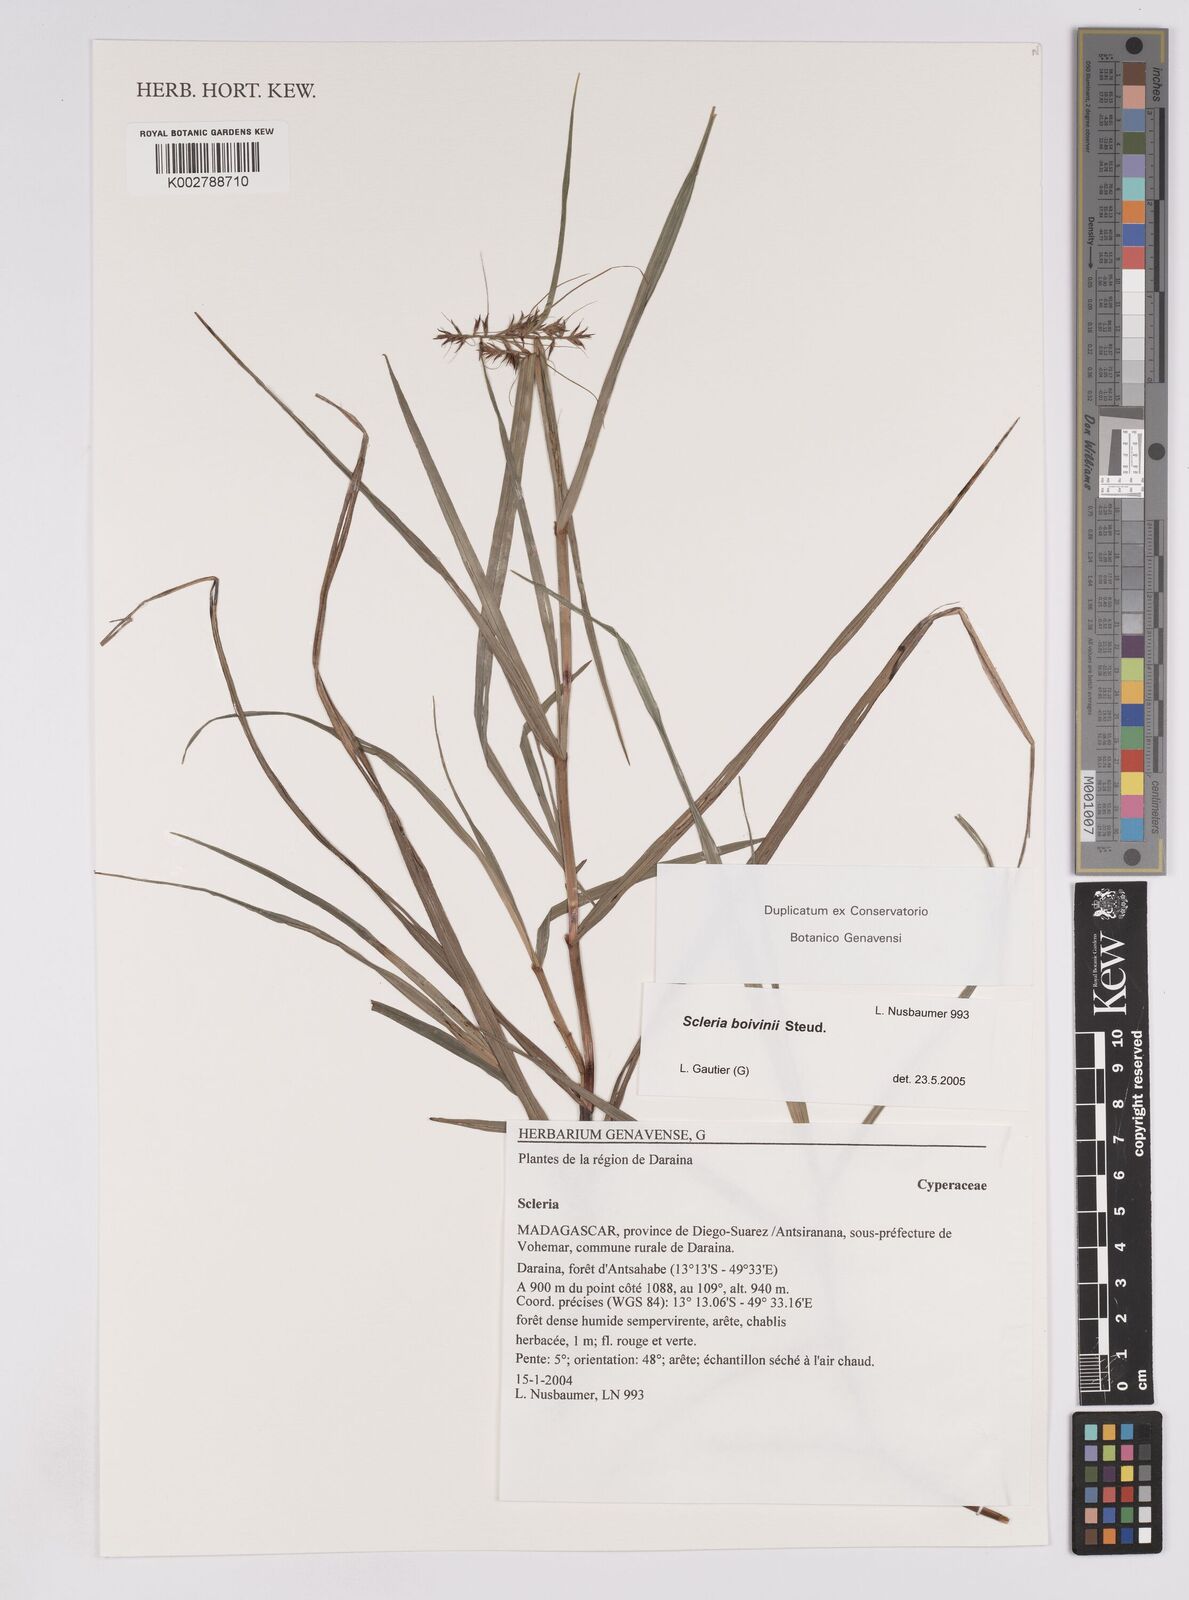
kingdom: Plantae
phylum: Tracheophyta
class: Liliopsida
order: Poales
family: Cyperaceae
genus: Scleria
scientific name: Scleria boivinii
